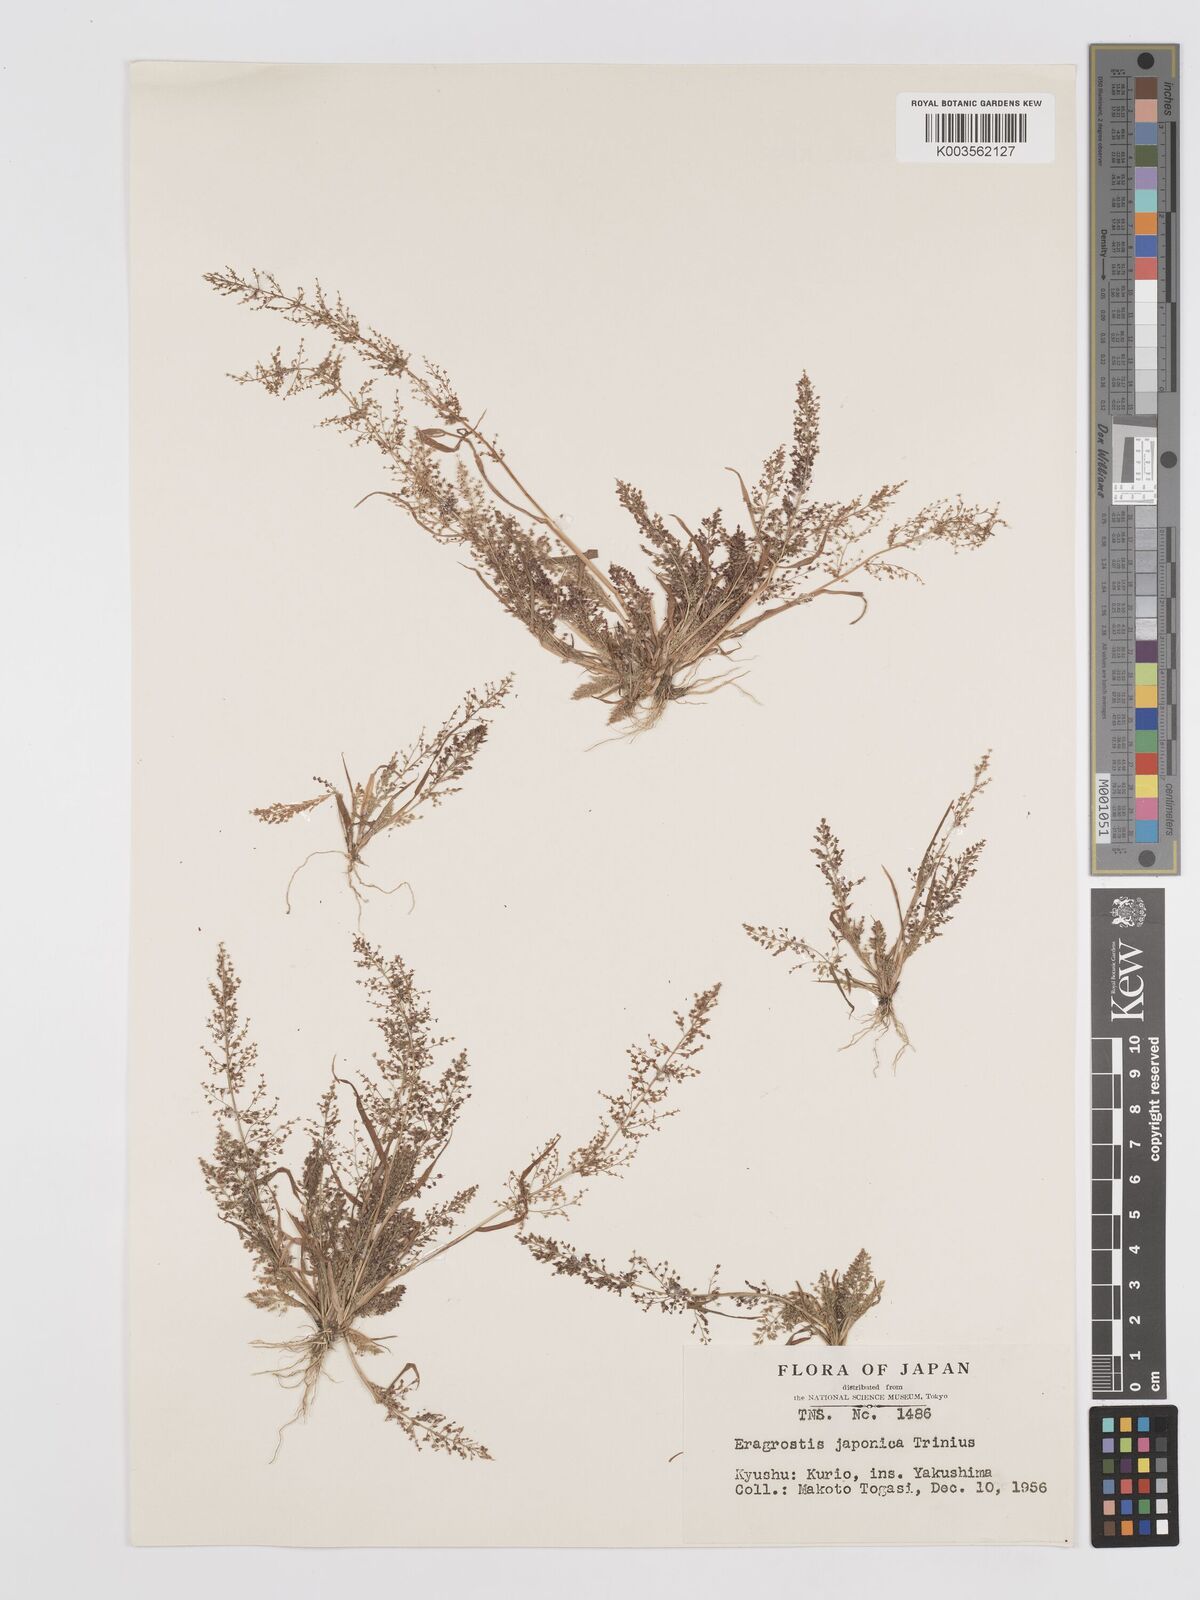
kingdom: Plantae
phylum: Tracheophyta
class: Liliopsida
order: Poales
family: Poaceae
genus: Eragrostis
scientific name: Eragrostis japonica
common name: Pond lovegrass
